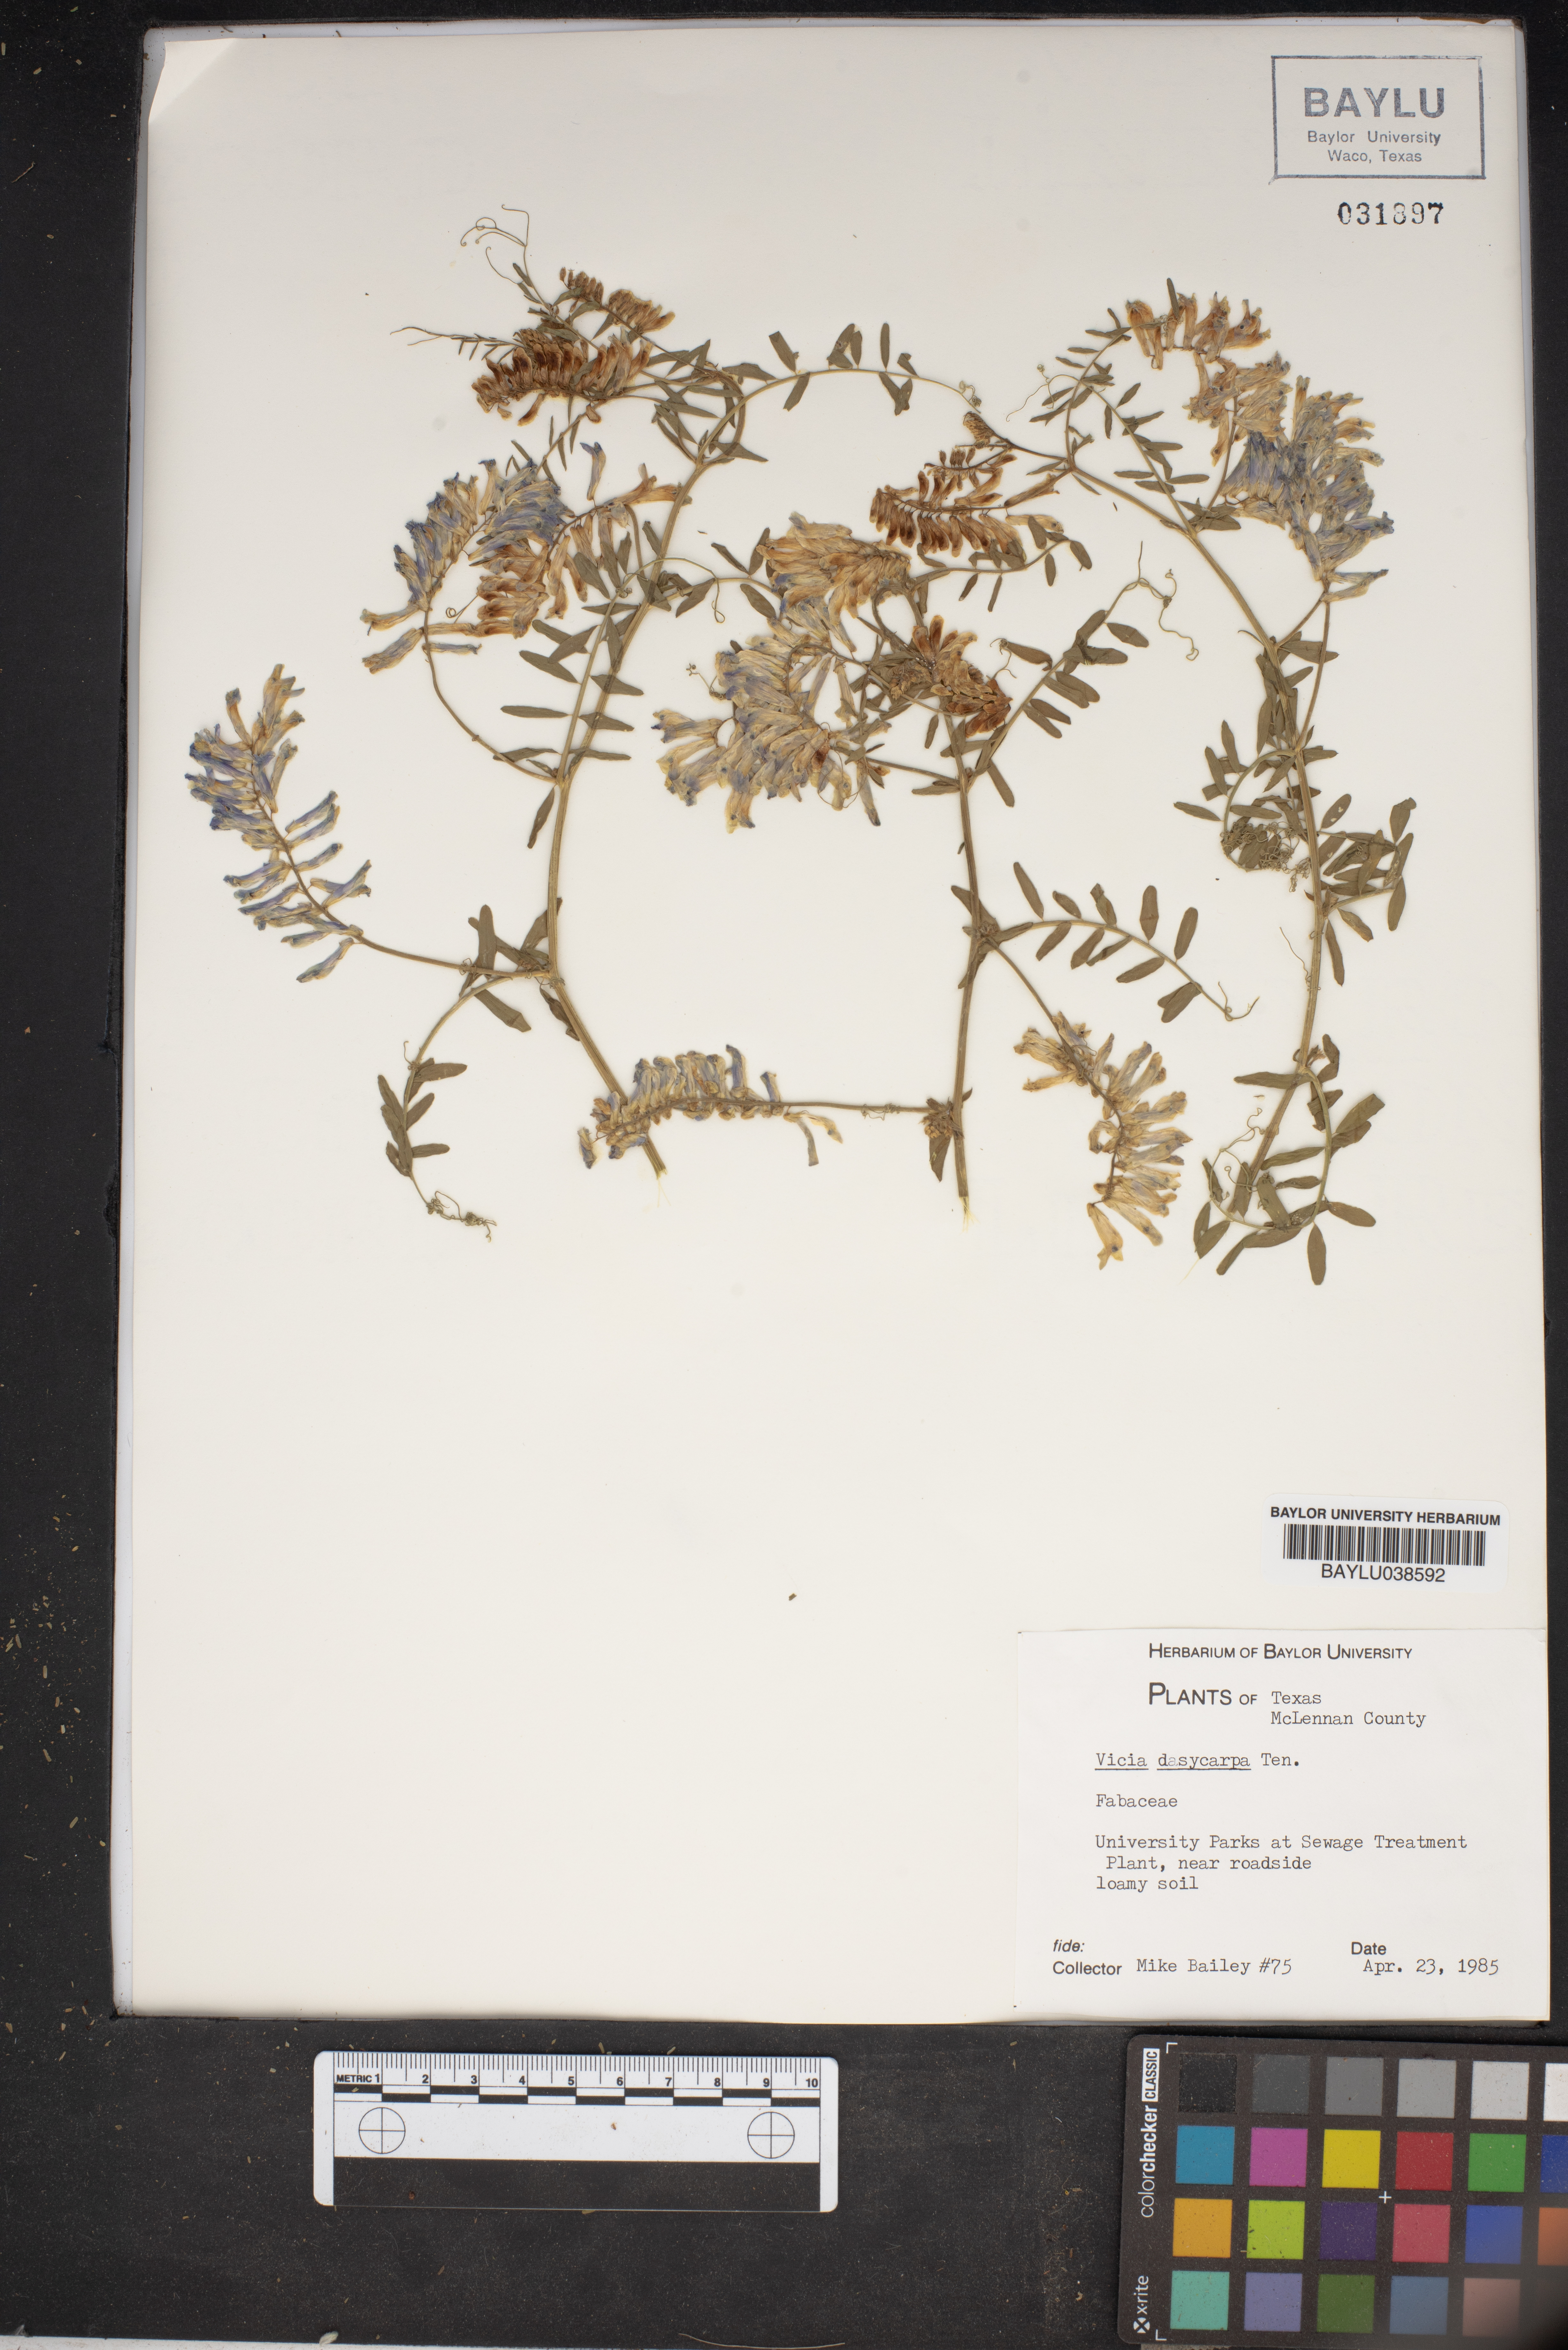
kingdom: Plantae
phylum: Tracheophyta
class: Magnoliopsida
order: Fabales
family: Fabaceae
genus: Vicia
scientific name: Vicia villosa
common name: Fodder vetch
